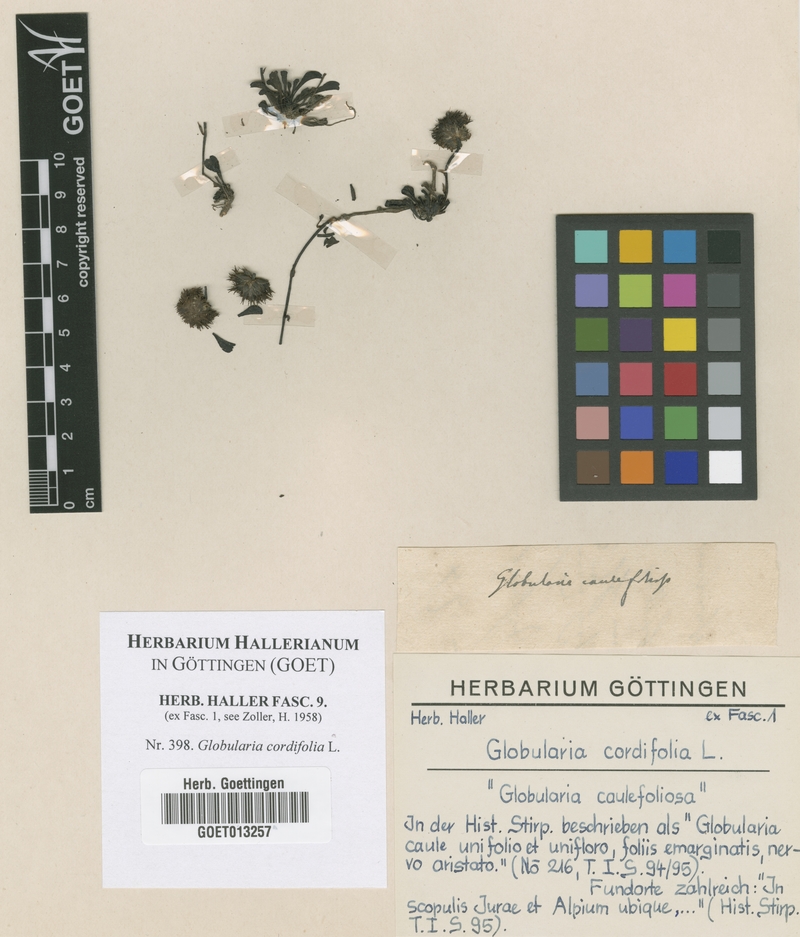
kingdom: Plantae
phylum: Tracheophyta
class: Magnoliopsida
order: Lamiales
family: Plantaginaceae
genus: Globularia
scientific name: Globularia cordifolia
